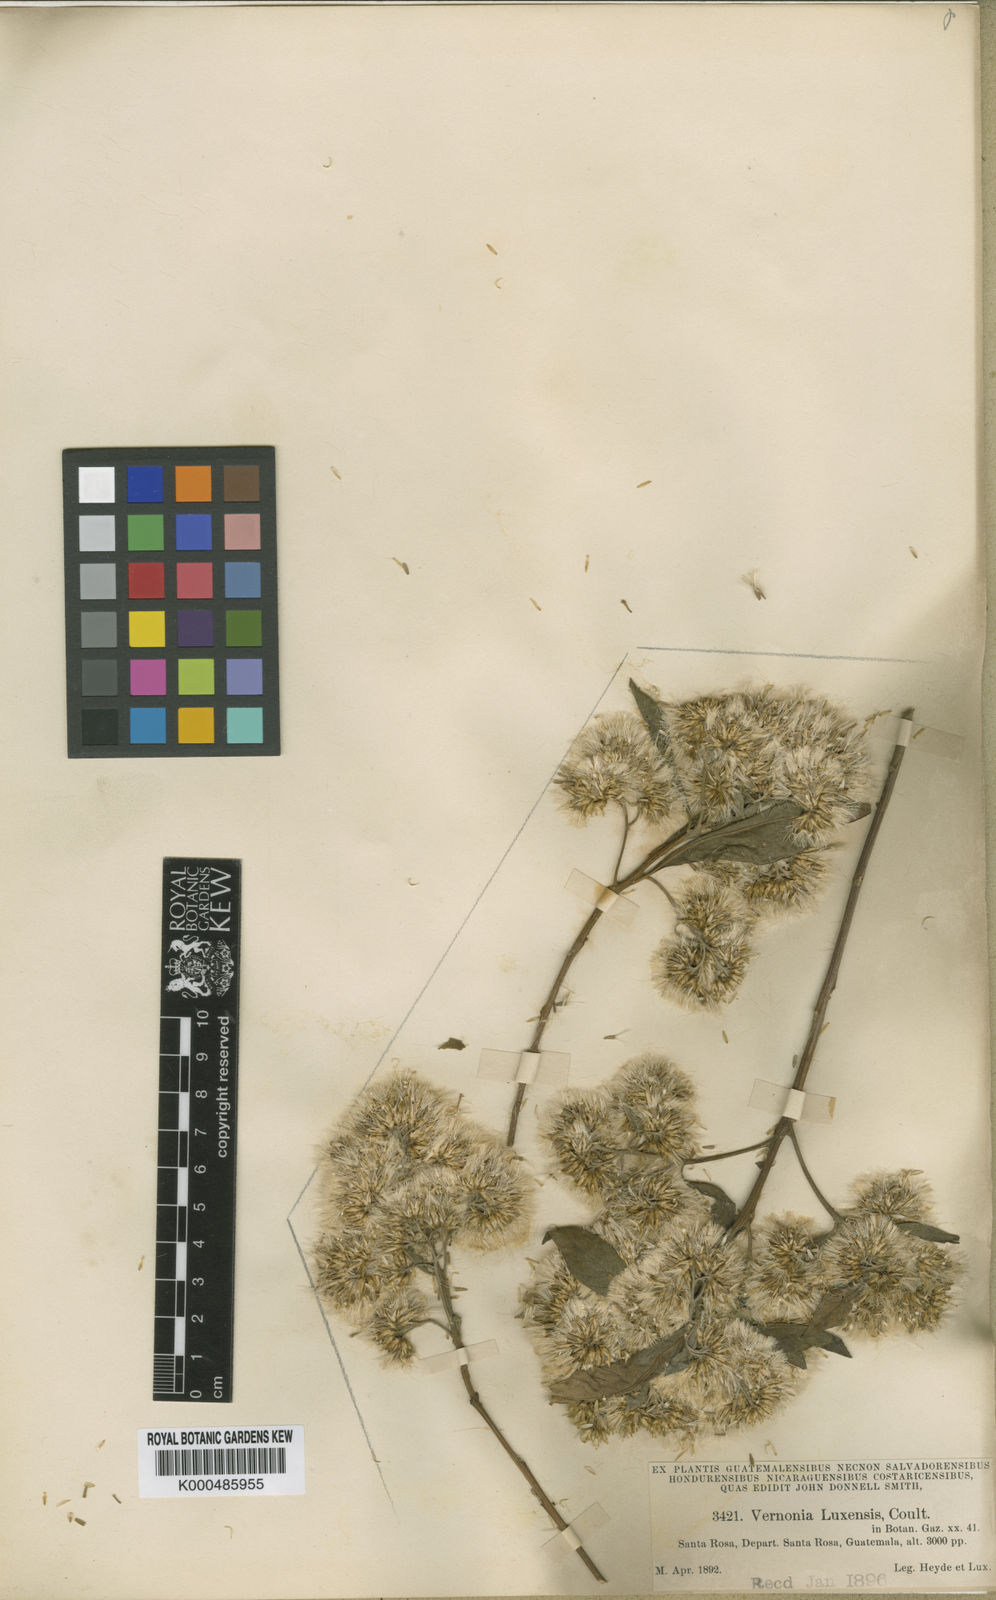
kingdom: Plantae
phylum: Tracheophyta
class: Magnoliopsida
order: Asterales
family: Asteraceae
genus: Eremosis
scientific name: Eremosis triflosculosa
